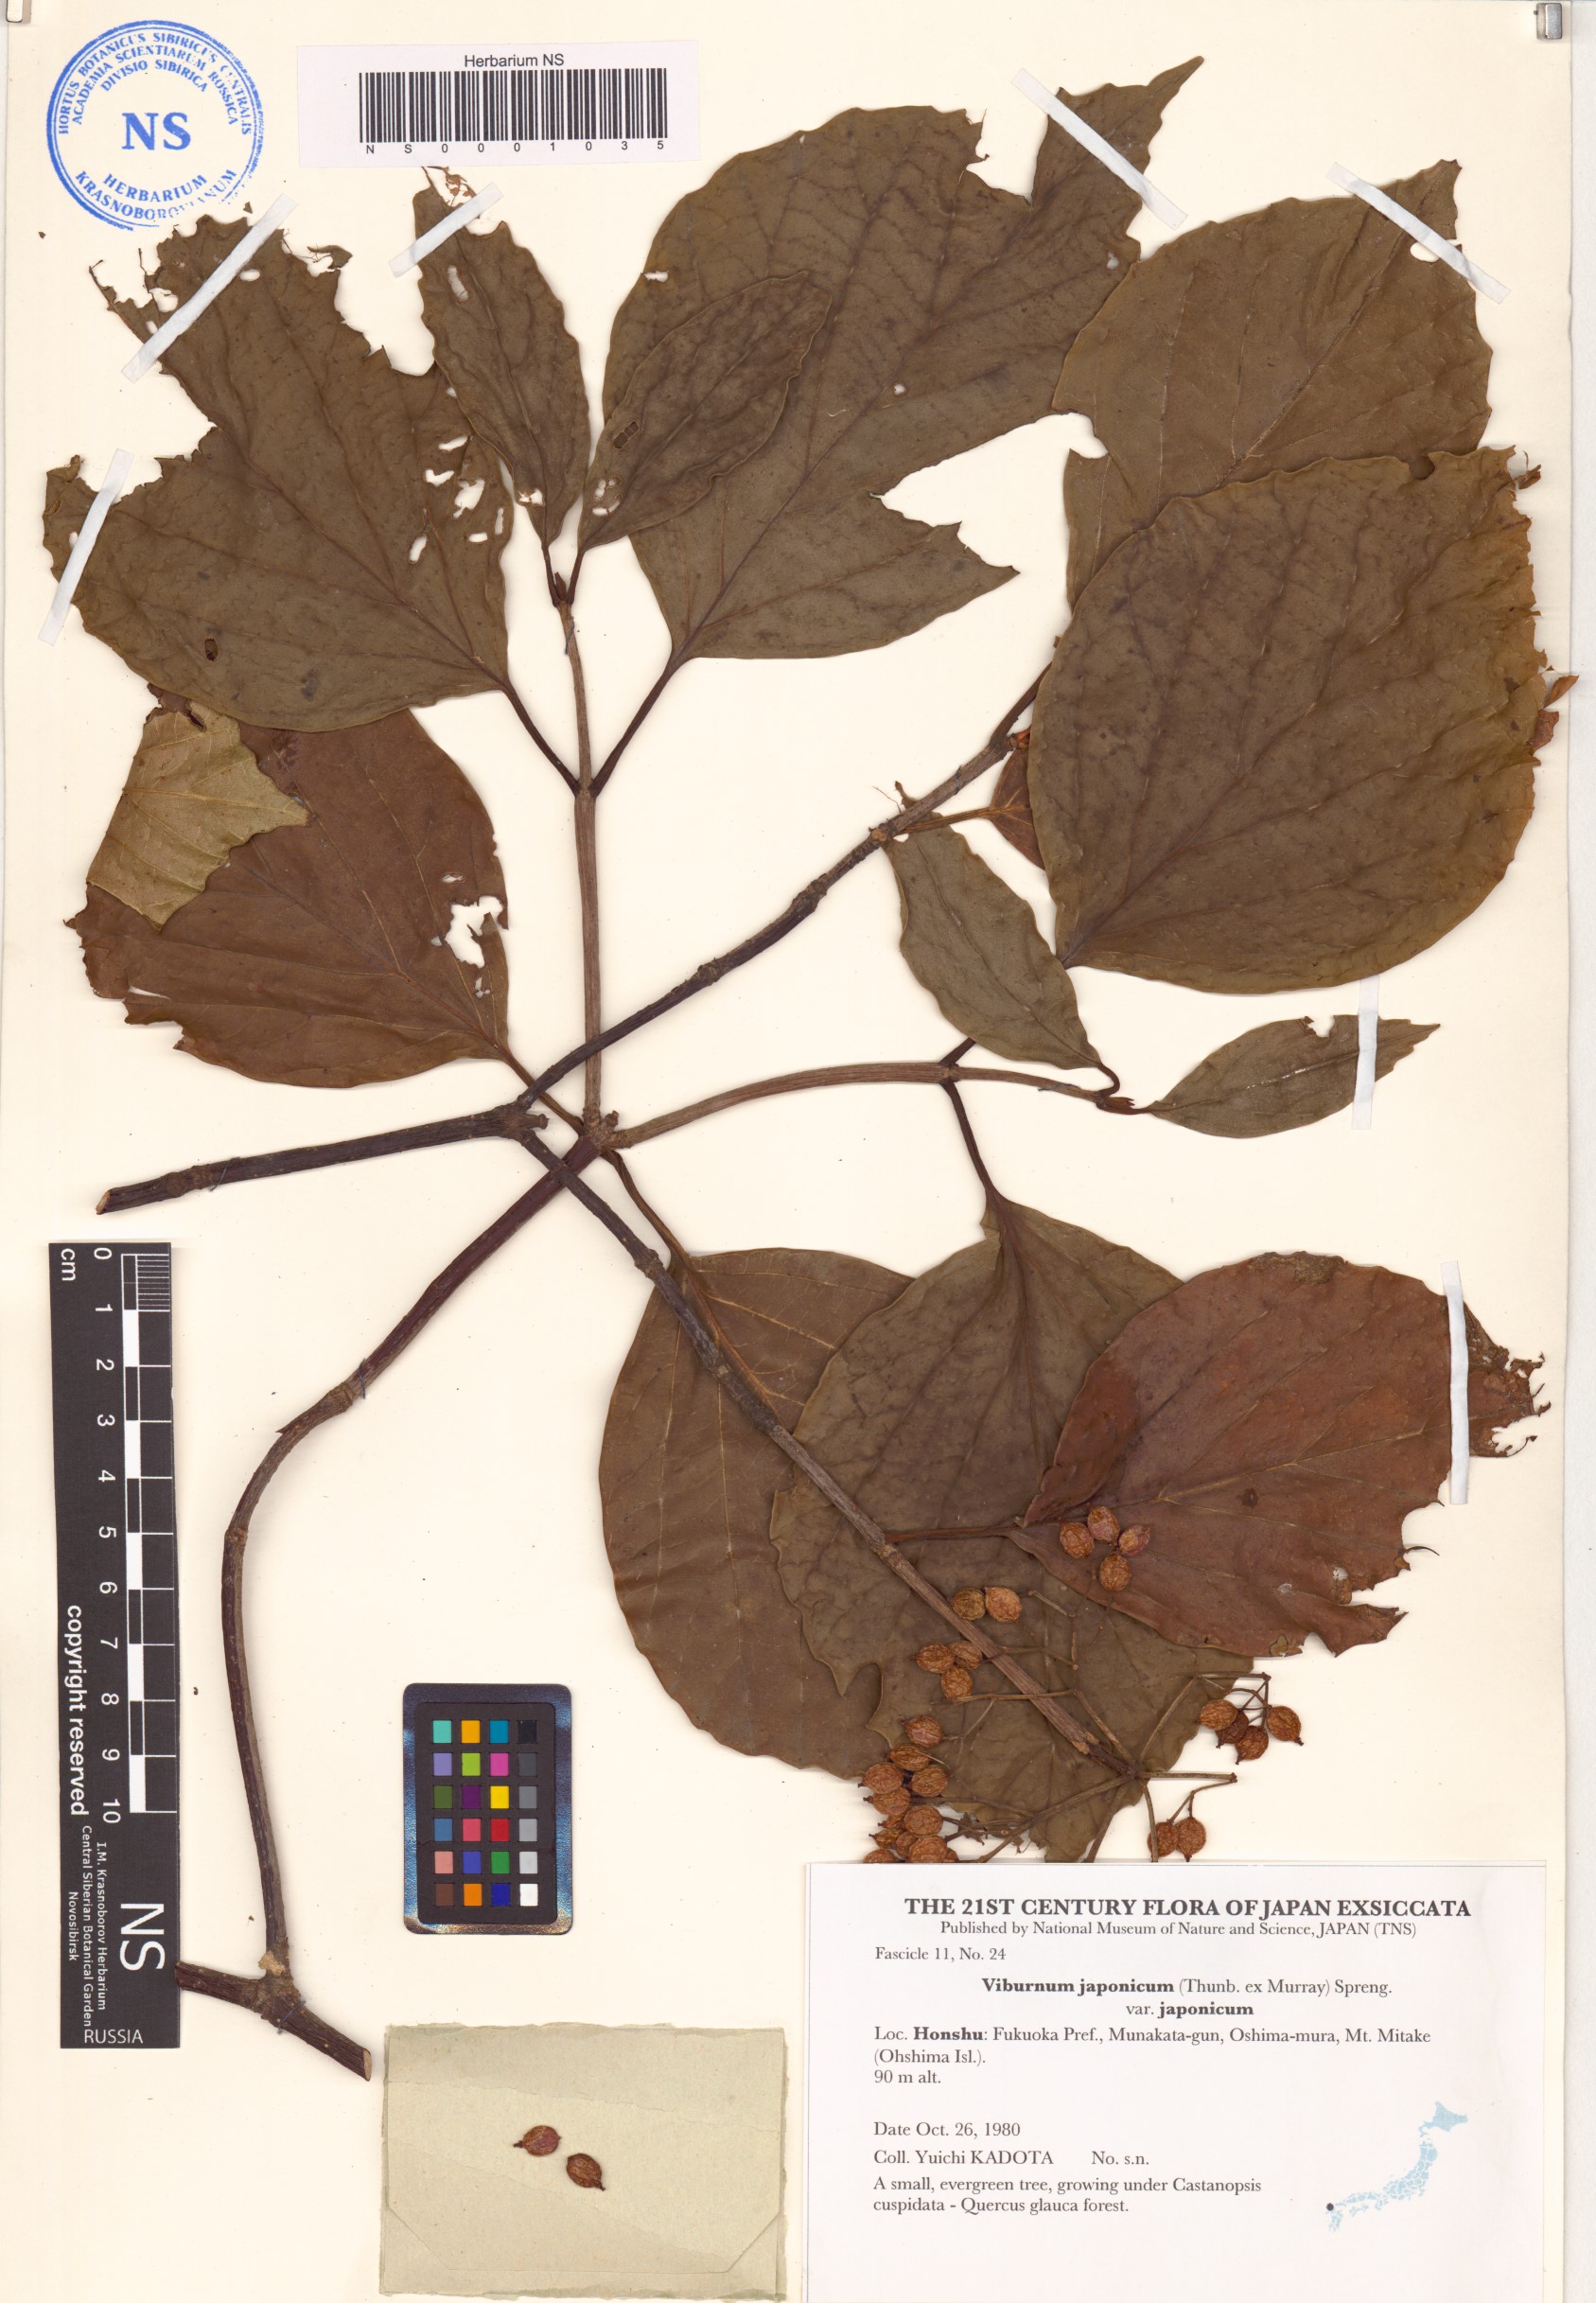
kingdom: Plantae
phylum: Tracheophyta
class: Magnoliopsida
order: Dipsacales
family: Viburnaceae
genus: Viburnum
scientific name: Viburnum japonicum
